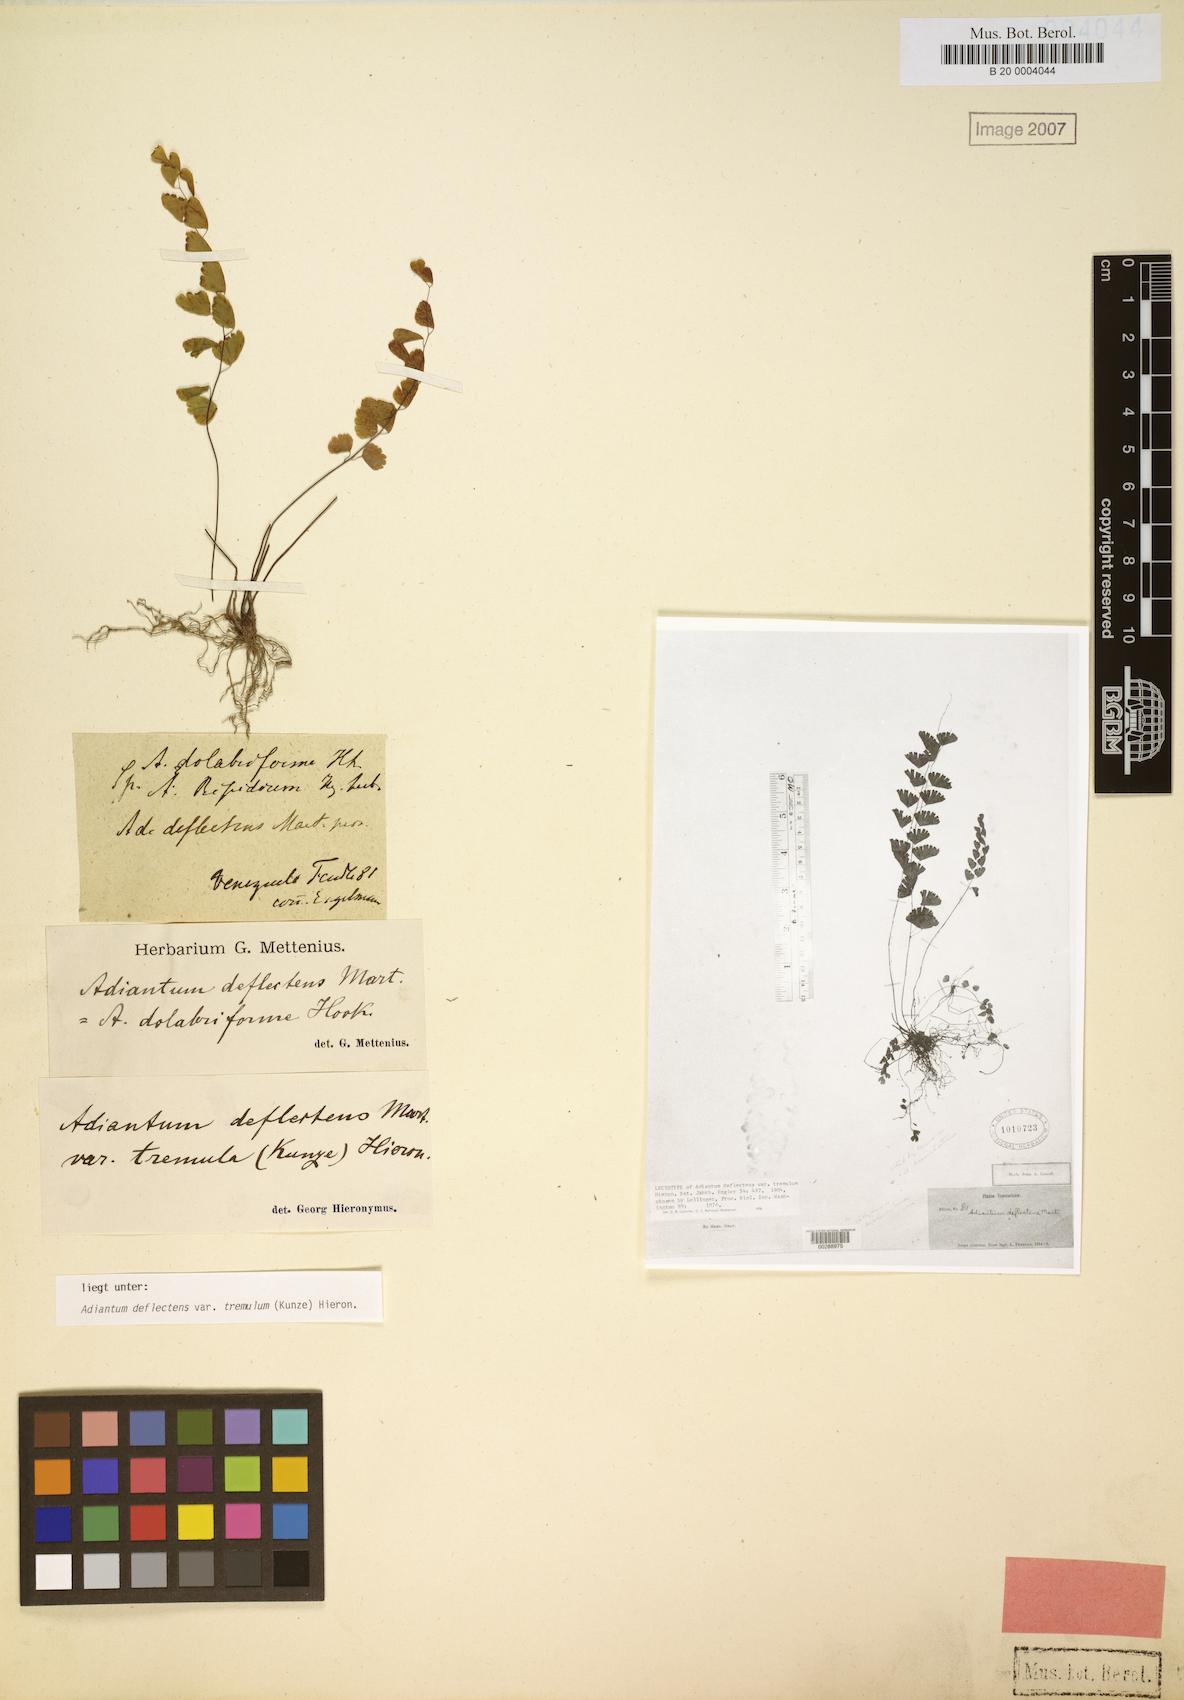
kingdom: Plantae
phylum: Tracheophyta
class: Polypodiopsida
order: Polypodiales
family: Pteridaceae
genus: Adiantum
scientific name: Adiantum deflectens
